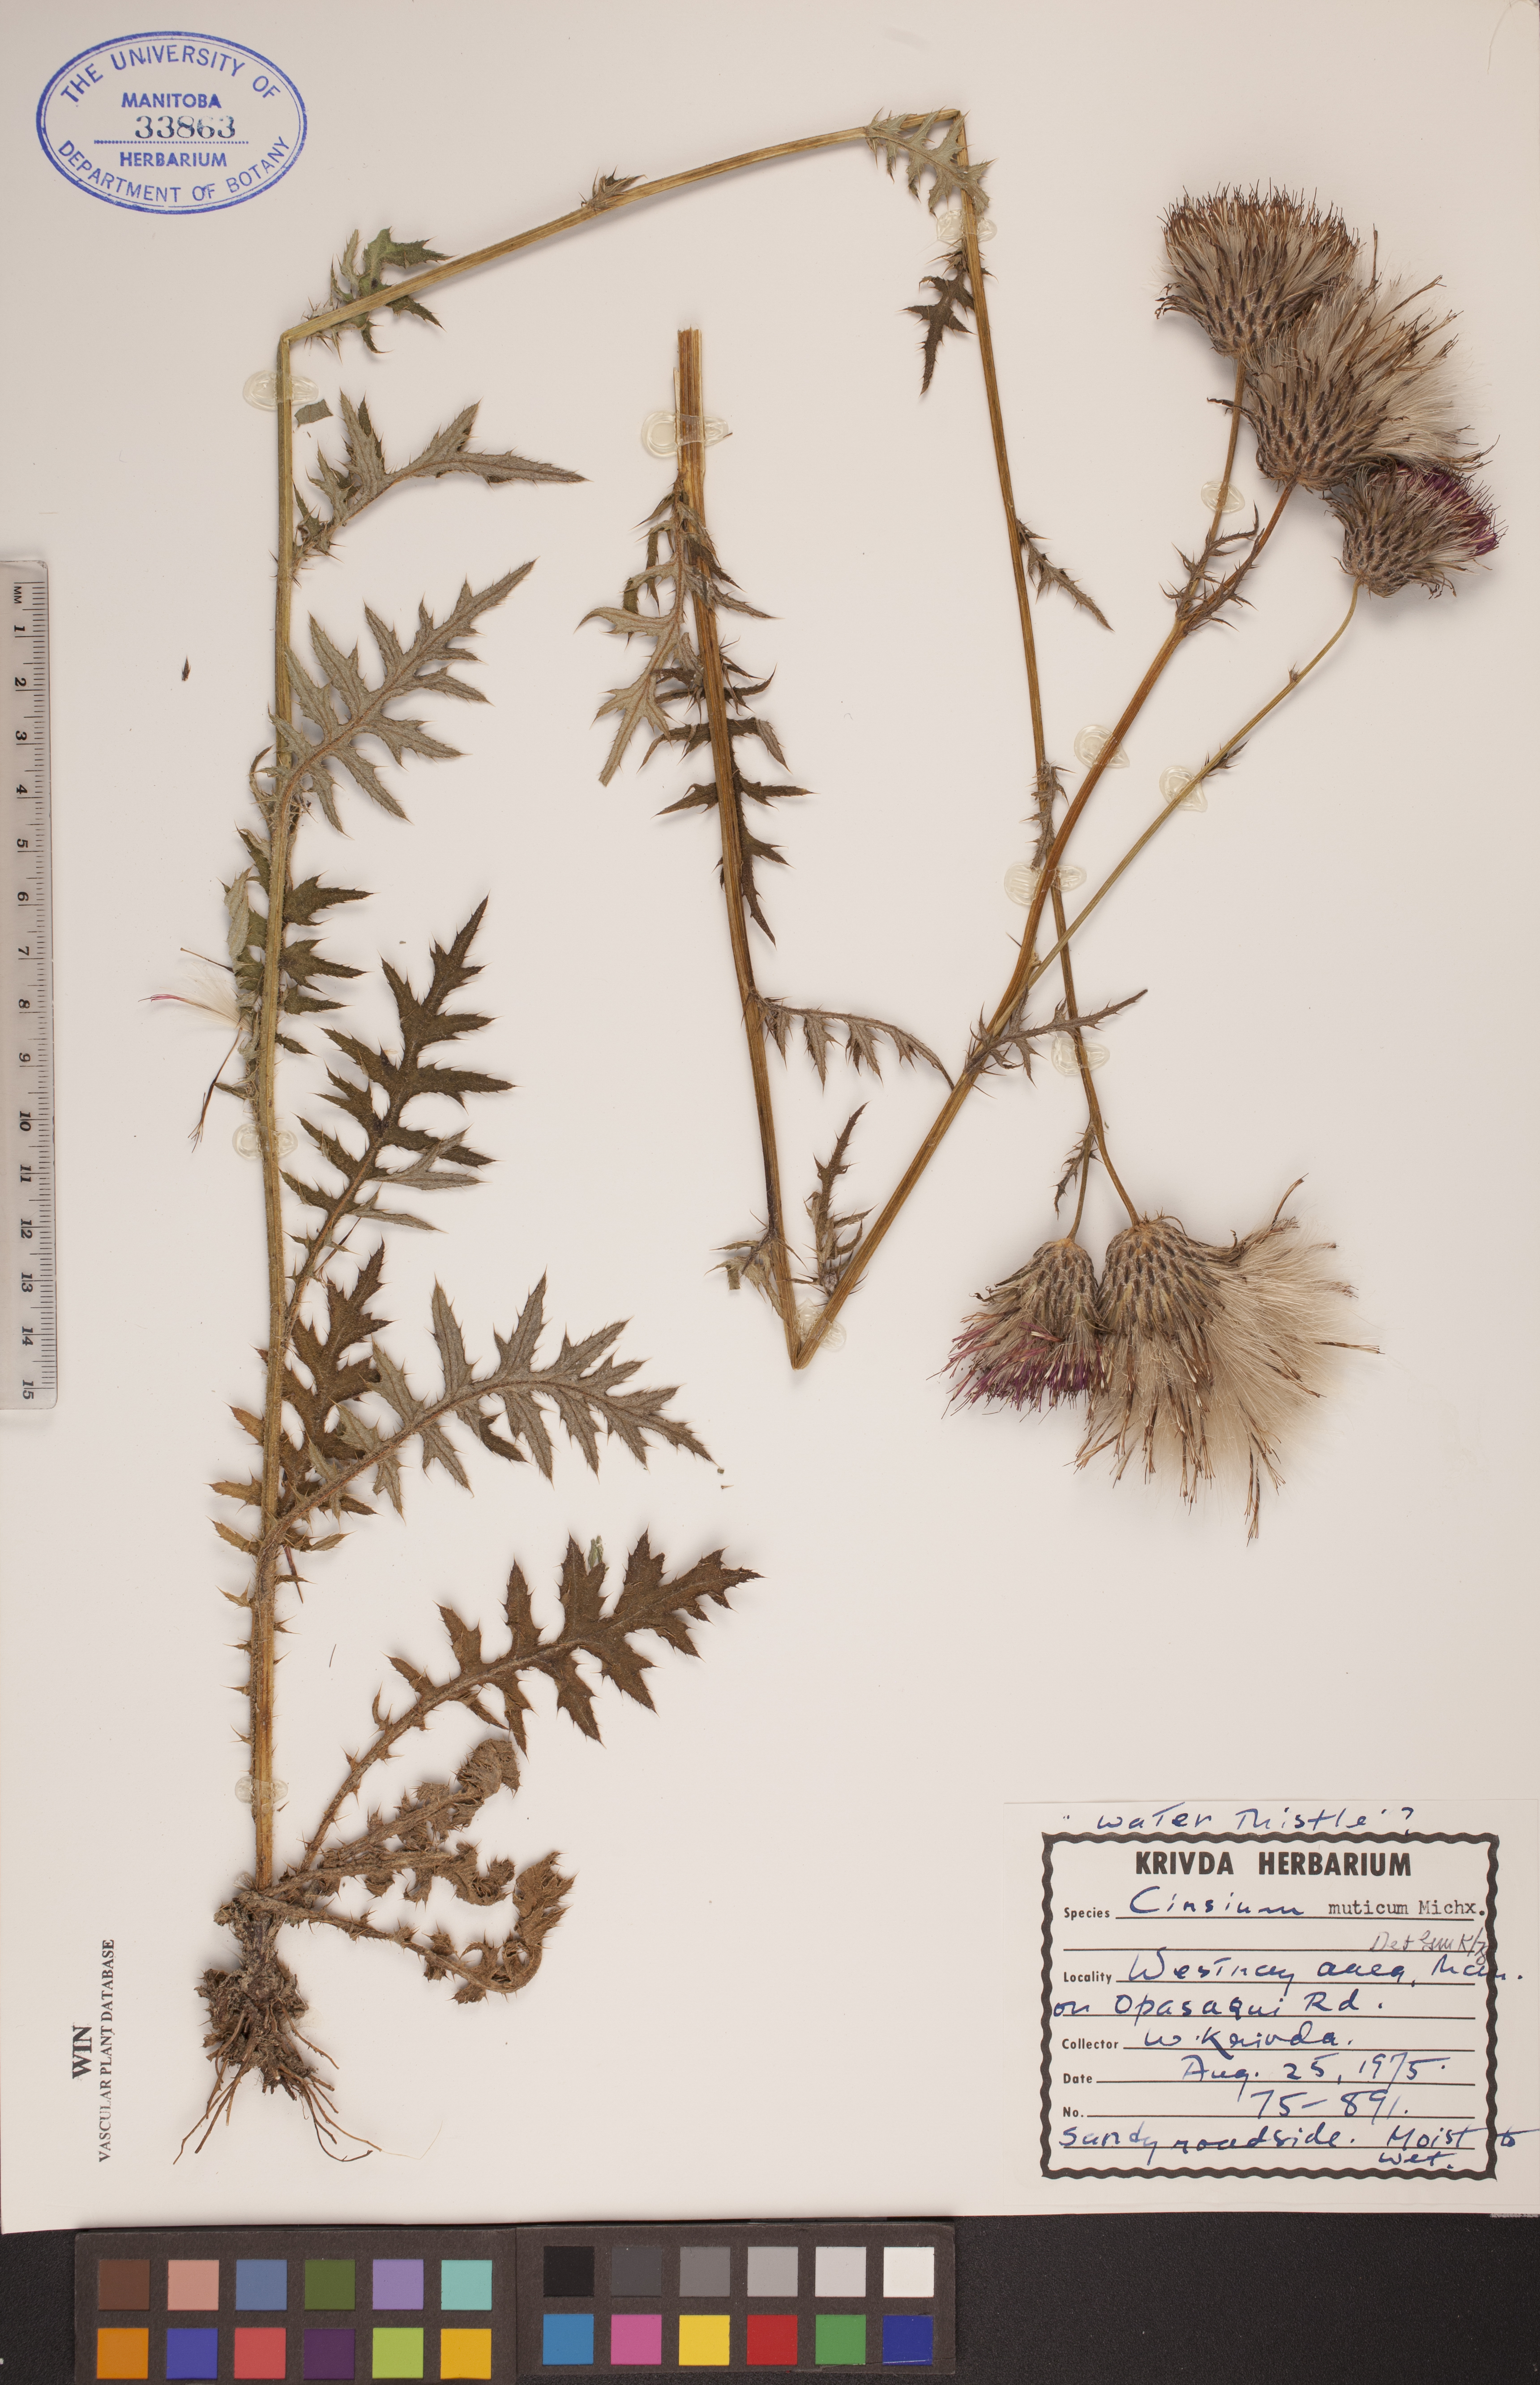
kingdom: Plantae
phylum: Tracheophyta
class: Magnoliopsida
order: Asterales
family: Asteraceae
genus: Cirsium
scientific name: Cirsium muticum
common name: Dunce-nettle
